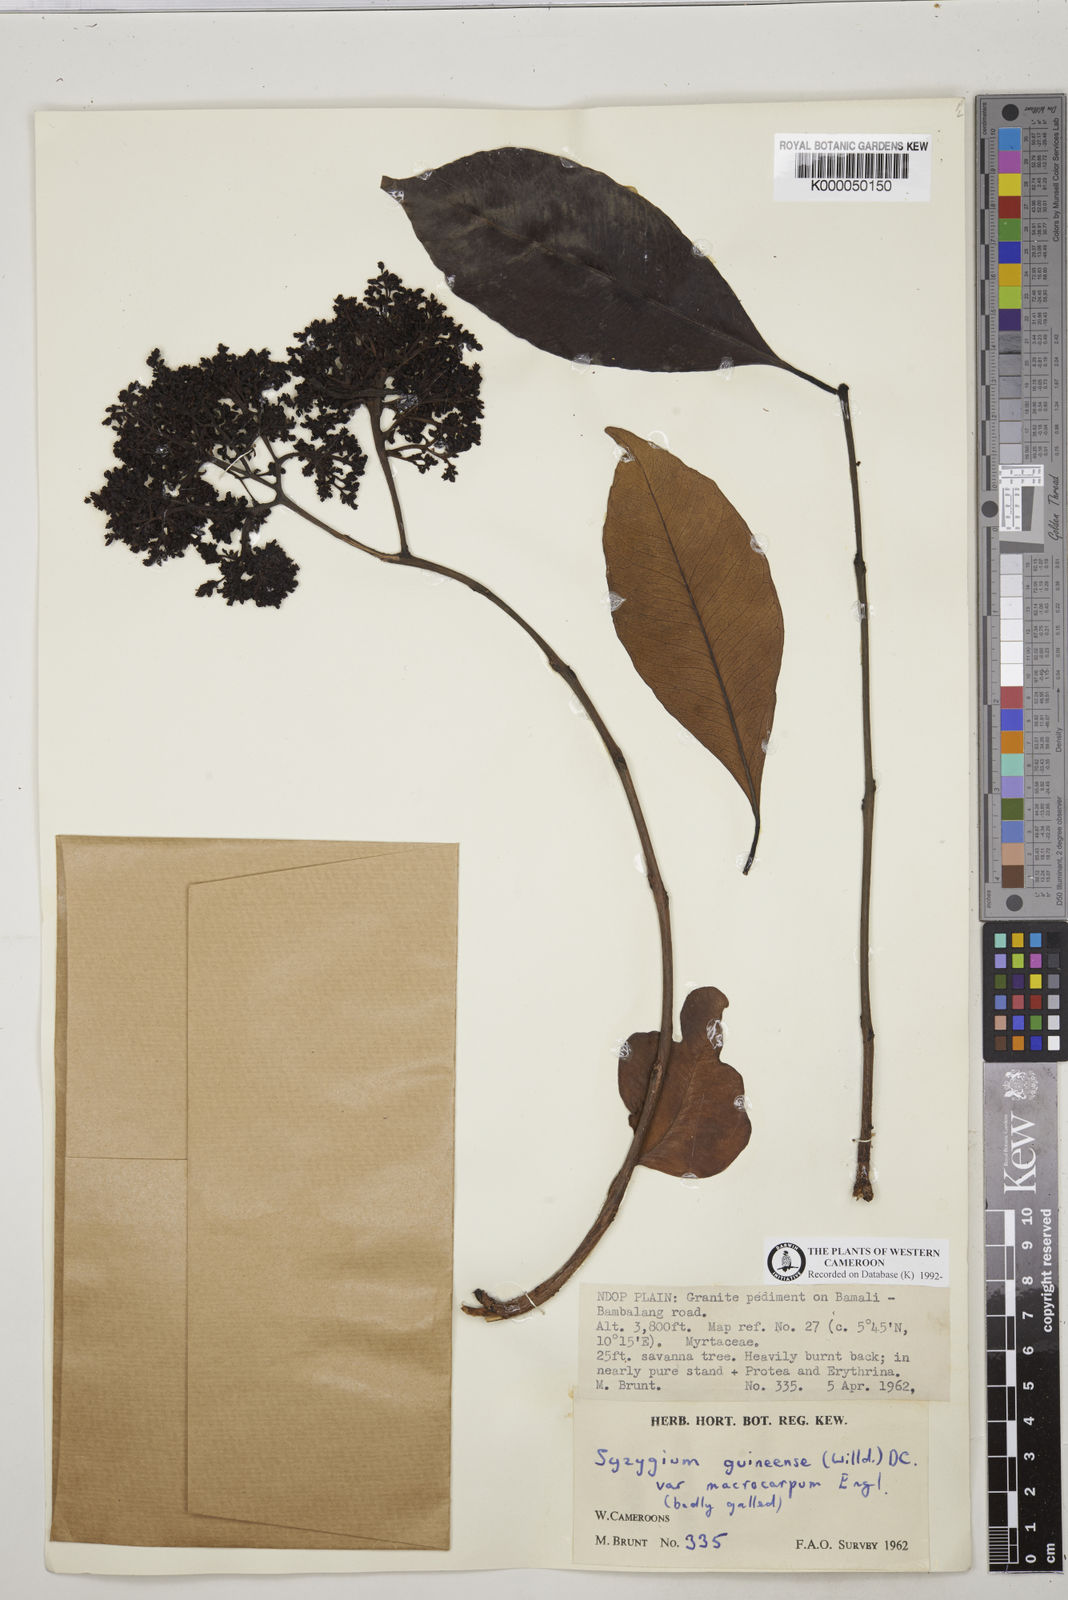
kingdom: Plantae
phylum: Tracheophyta
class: Magnoliopsida
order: Myrtales
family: Myrtaceae
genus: Syzygium
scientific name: Syzygium guineense
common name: Water-pear
